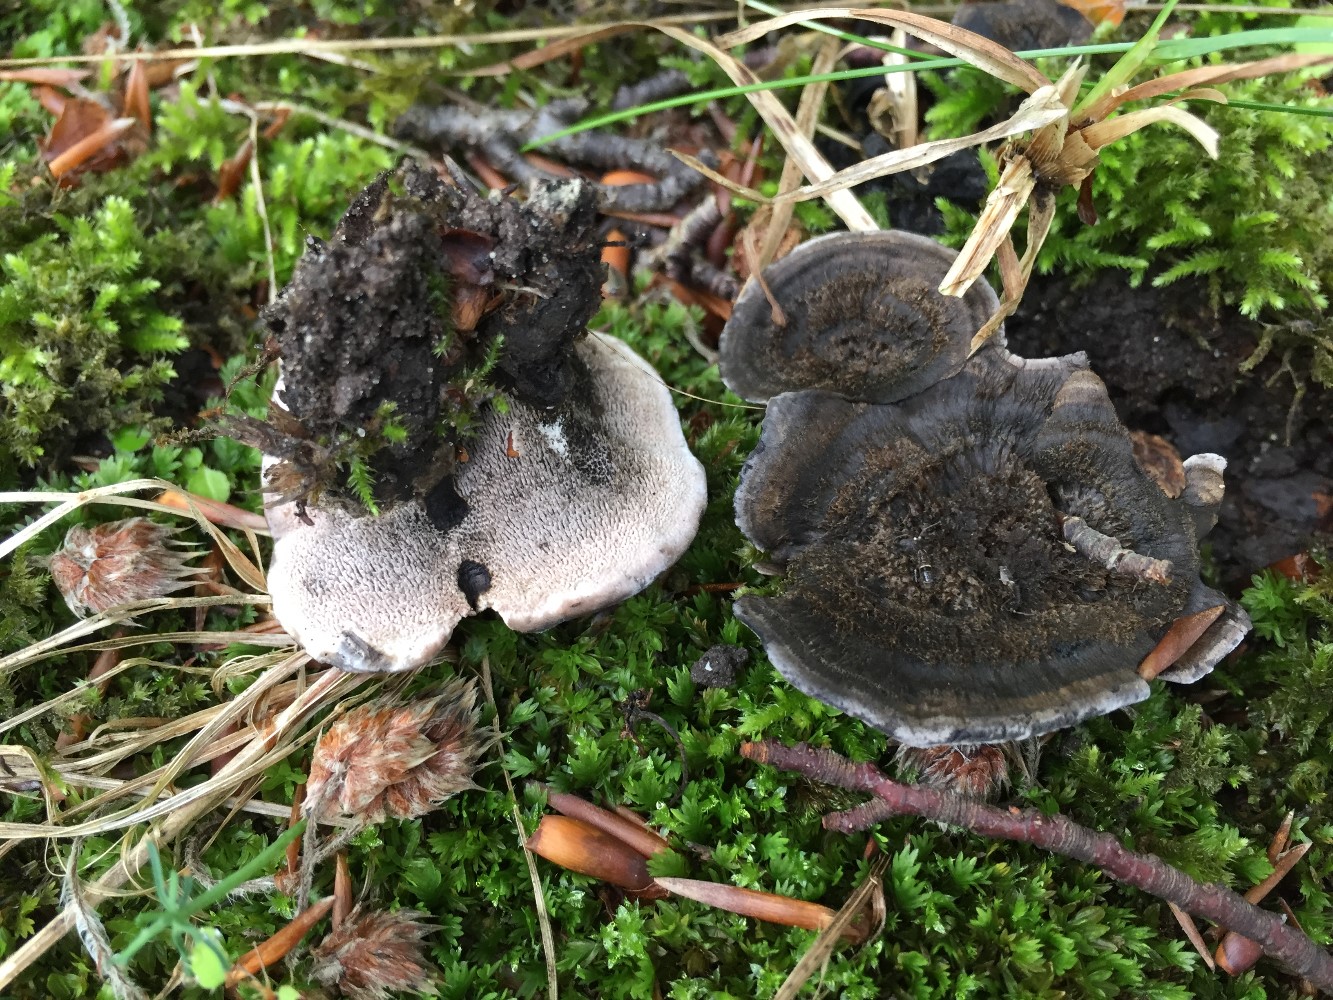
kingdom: Fungi
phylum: Basidiomycota
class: Agaricomycetes
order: Thelephorales
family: Thelephoraceae
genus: Phellodon
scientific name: Phellodon
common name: mørk duftpigsvamp
